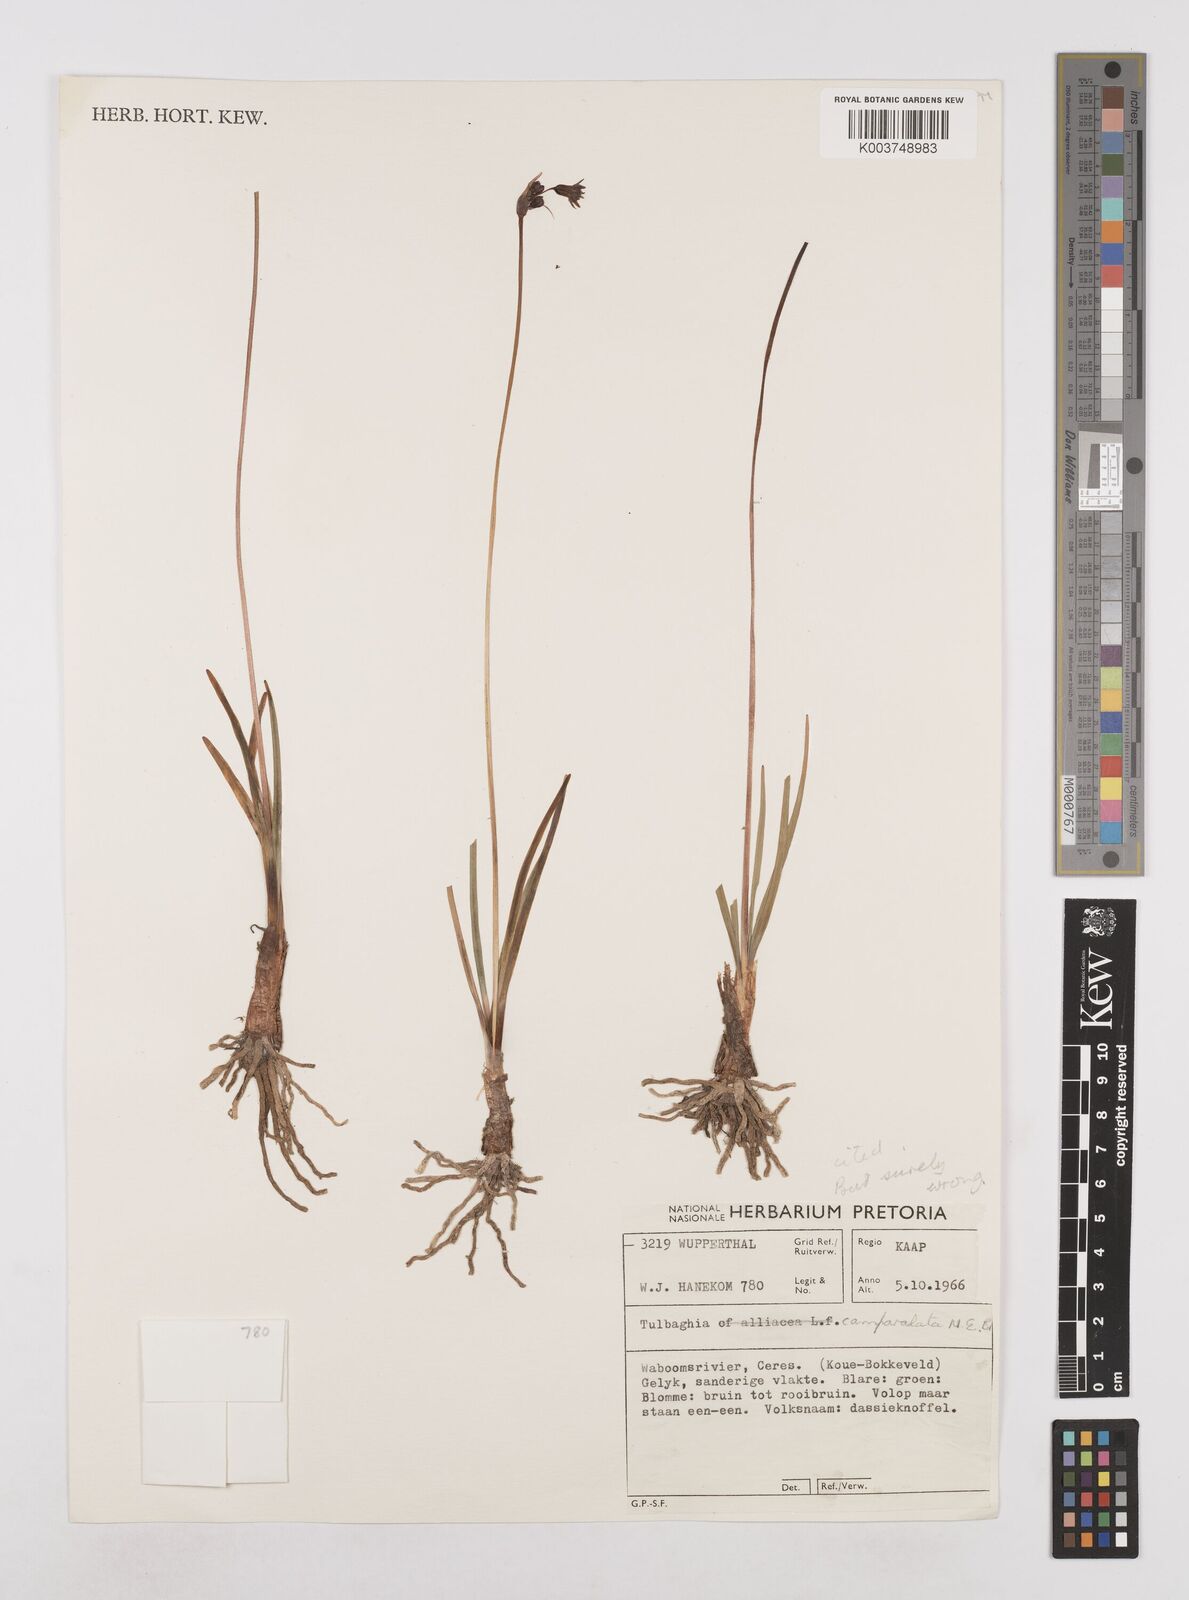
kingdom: Plantae
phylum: Tracheophyta
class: Liliopsida
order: Asparagales
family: Amaryllidaceae
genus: Tulbaghia
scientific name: Tulbaghia cernua
